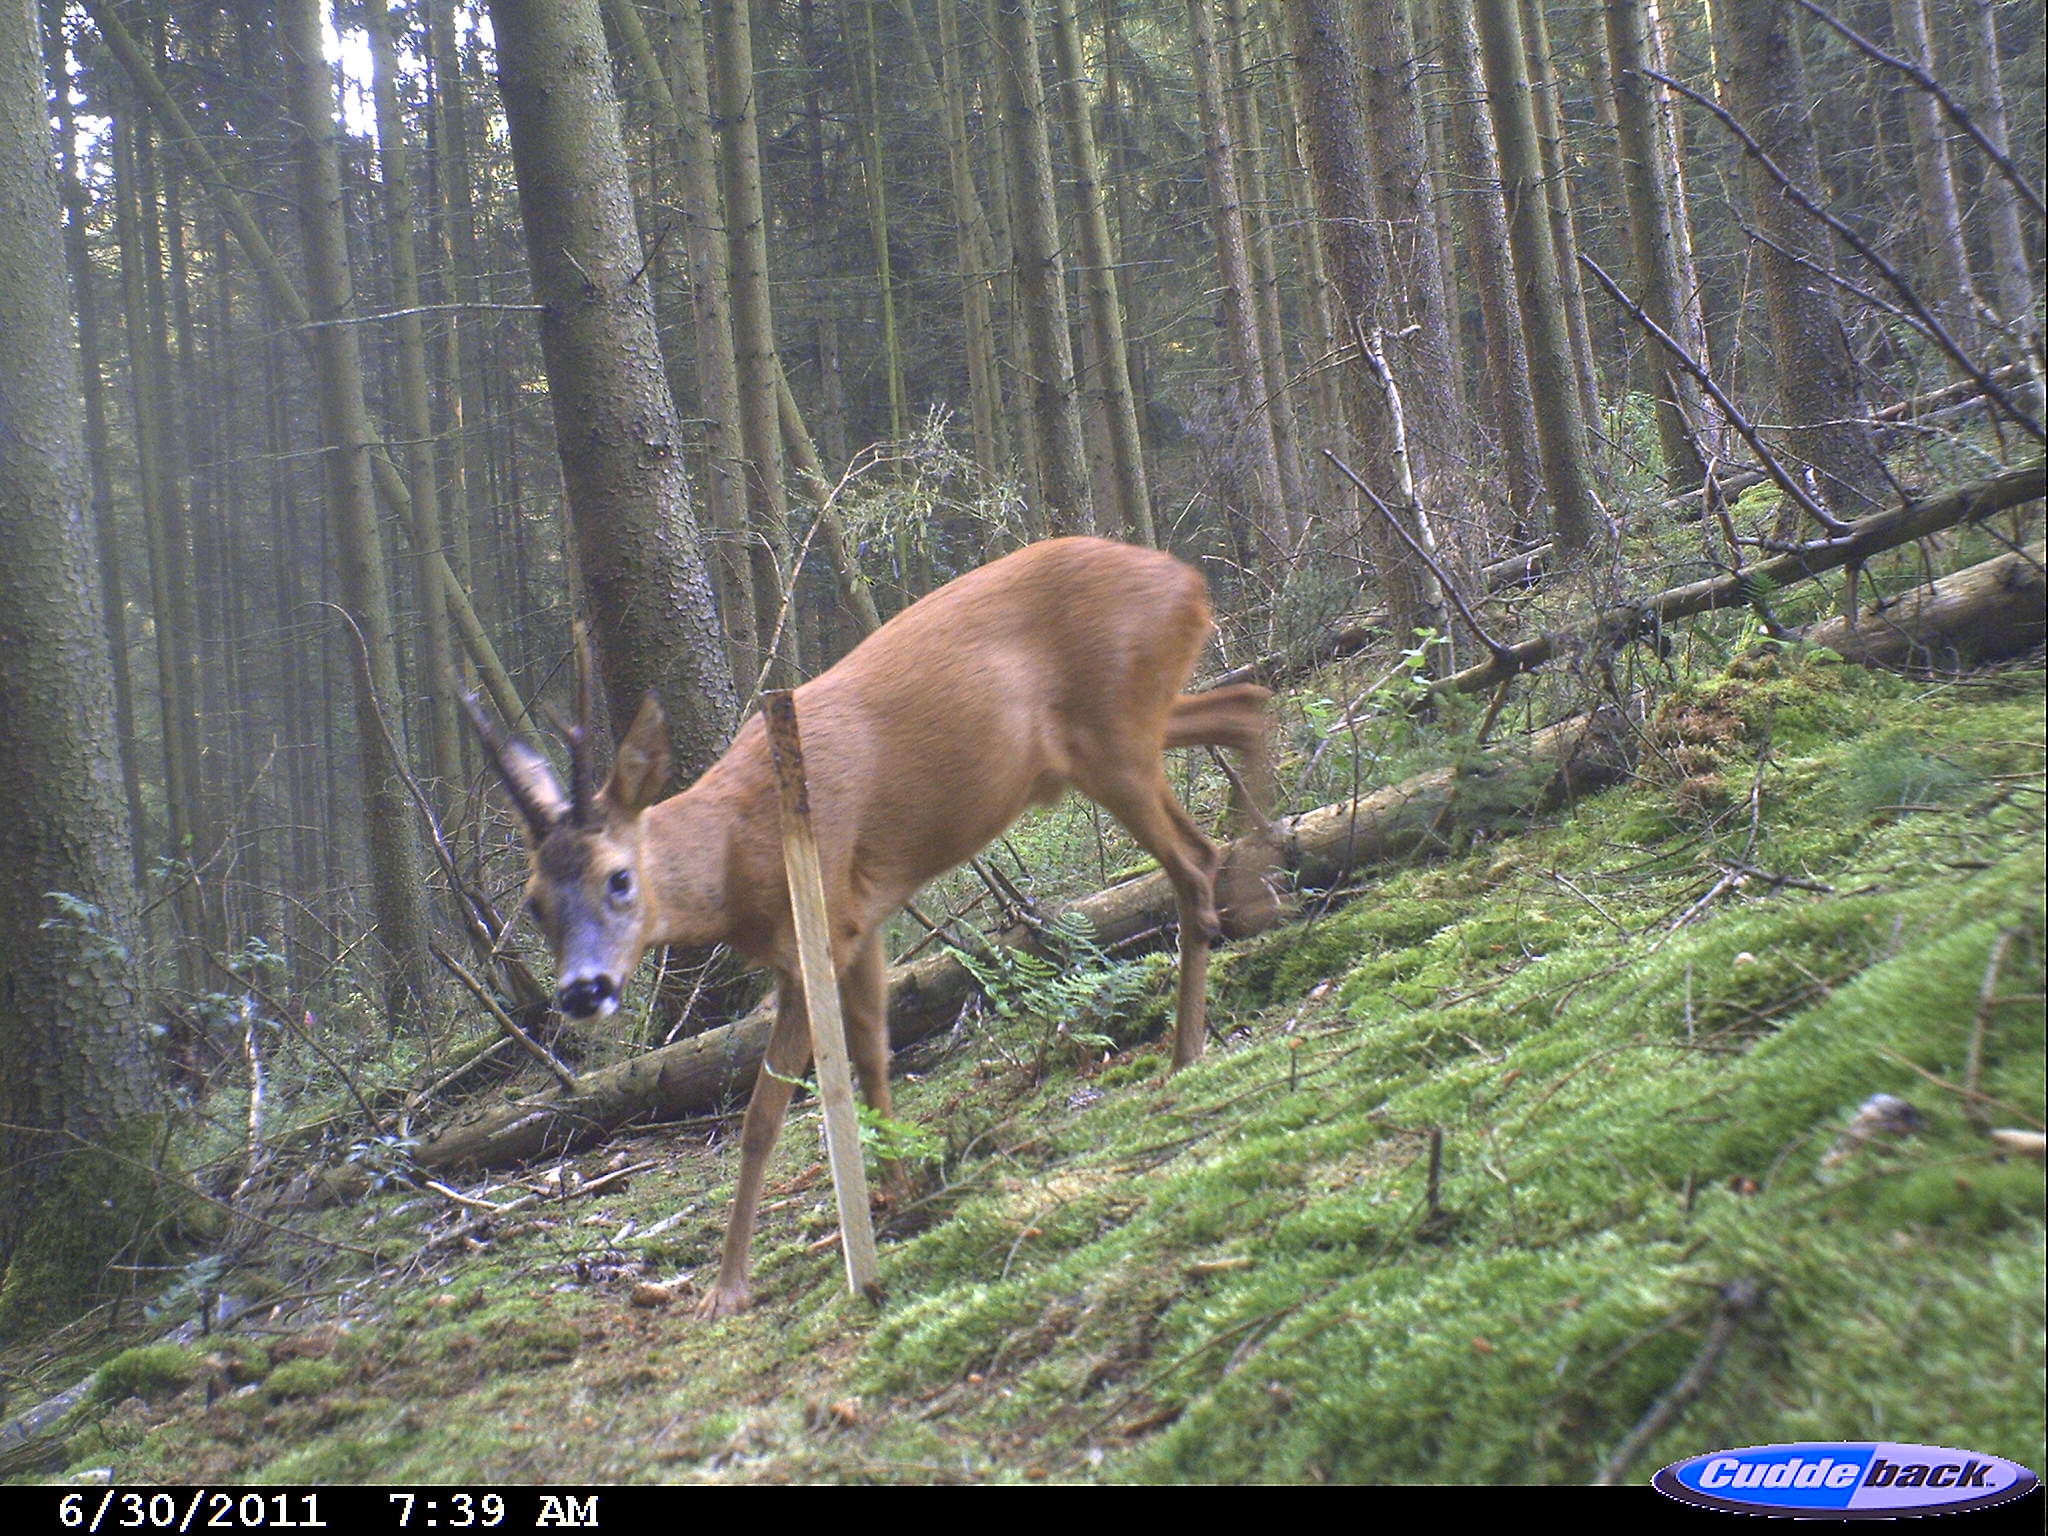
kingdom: Animalia
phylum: Chordata
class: Mammalia
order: Artiodactyla
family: Cervidae
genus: Capreolus
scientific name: Capreolus capreolus
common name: Western roe deer
